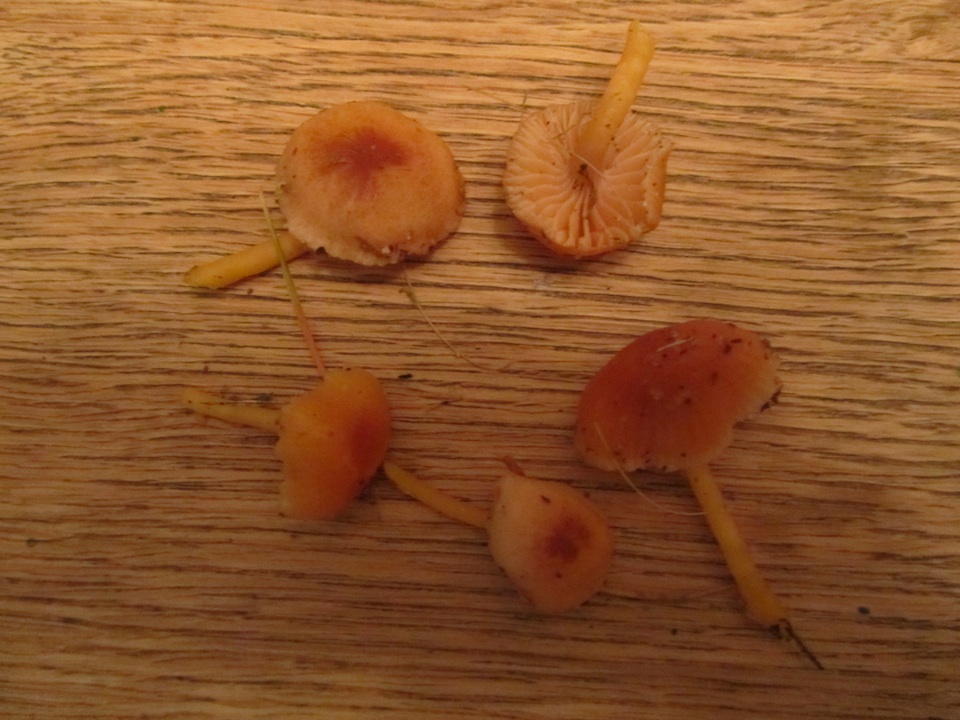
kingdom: Fungi
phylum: Basidiomycota
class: Agaricomycetes
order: Agaricales
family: Hygrophoraceae
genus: Gliophorus
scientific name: Gliophorus laetus
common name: brusk-vokshat
